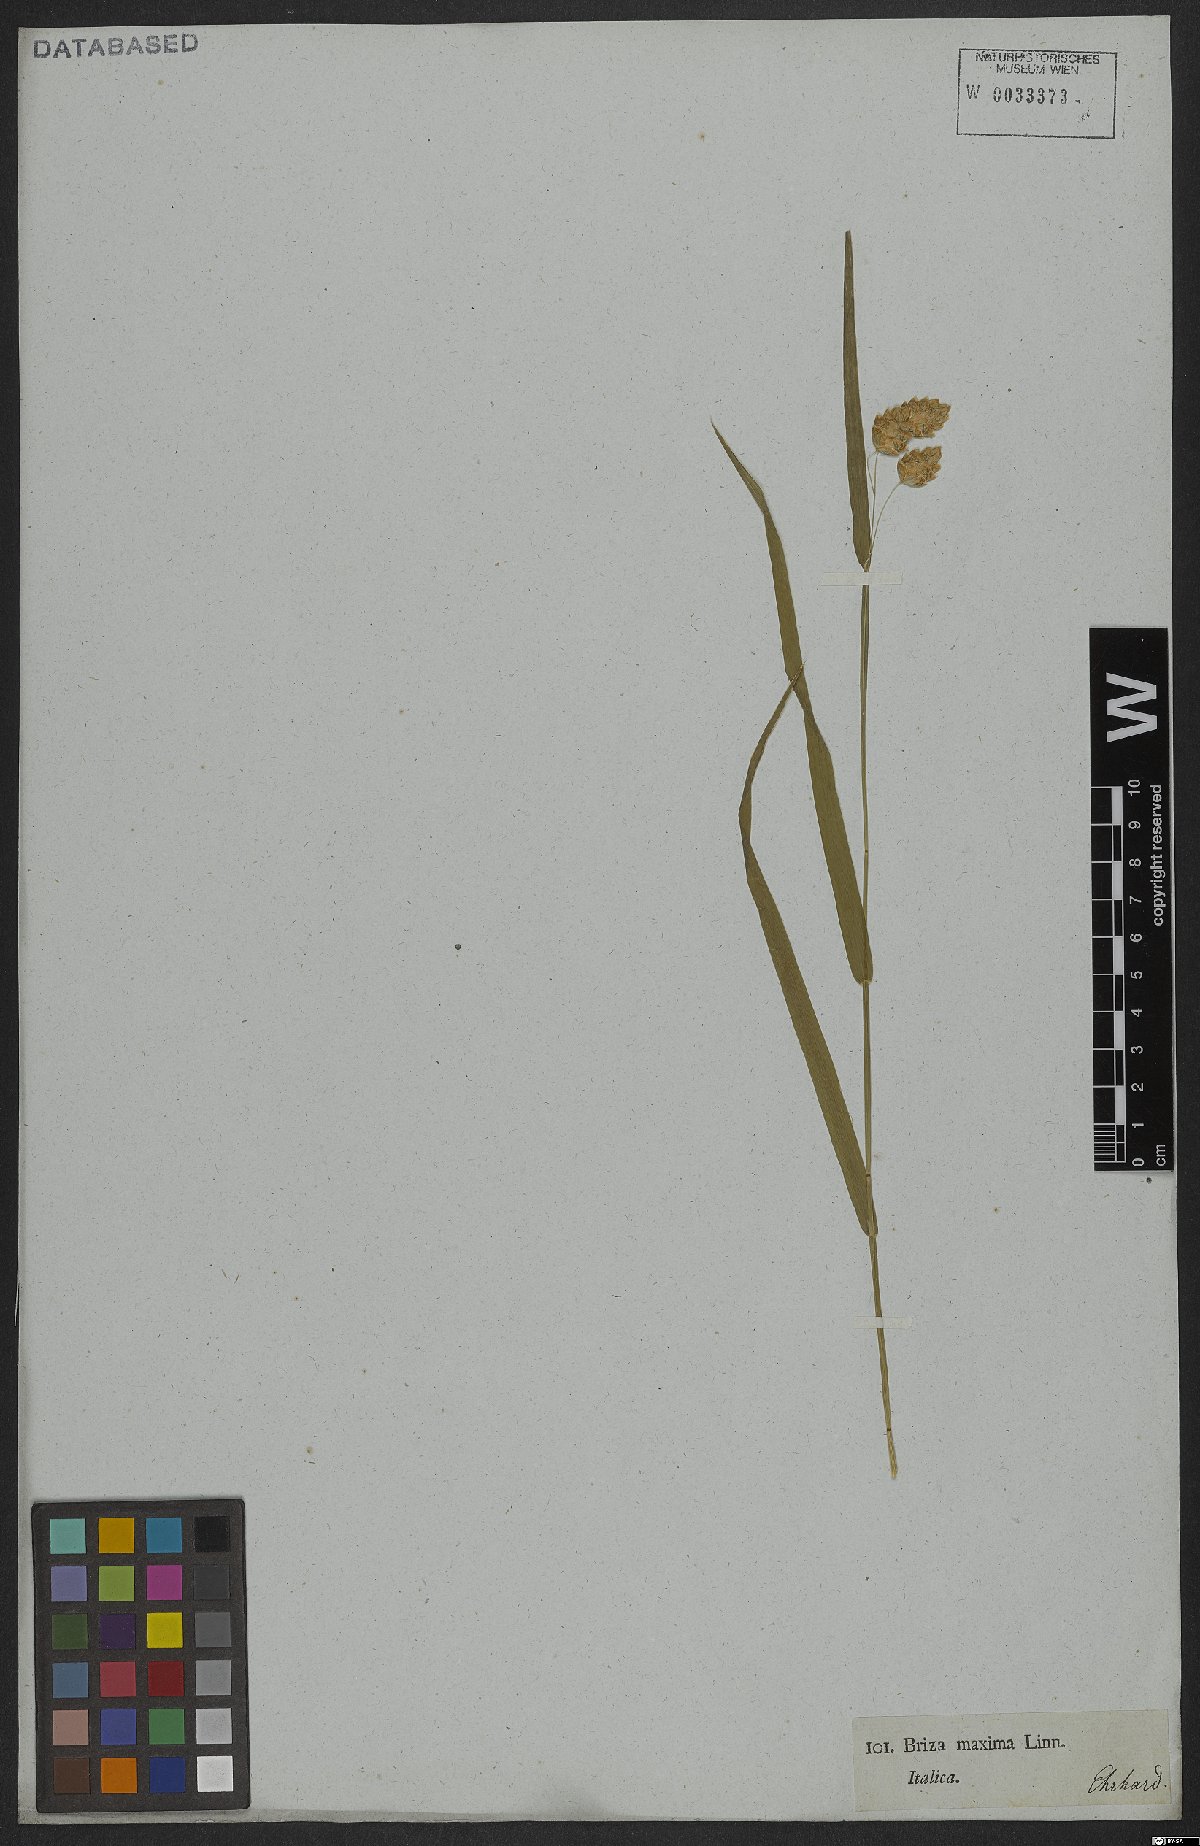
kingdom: Plantae
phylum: Tracheophyta
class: Liliopsida
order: Poales
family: Poaceae
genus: Briza
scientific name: Briza maxima
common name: Big quakinggrass
